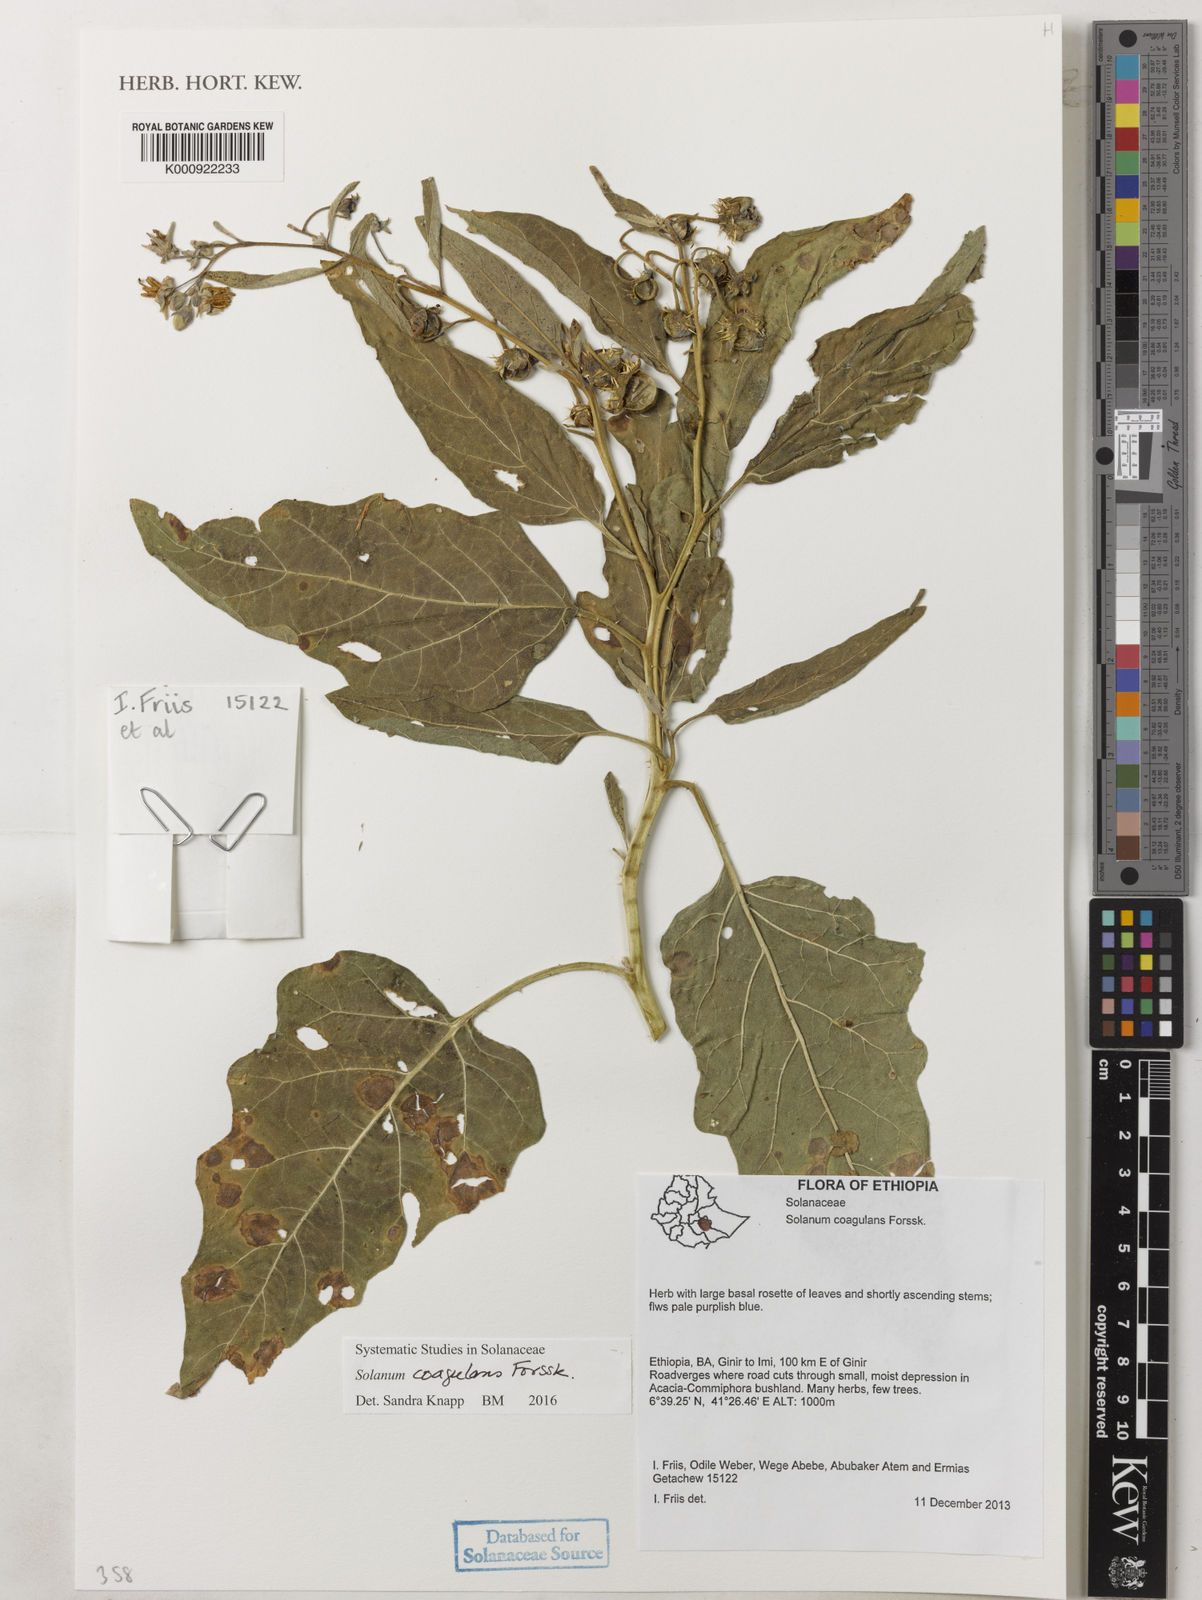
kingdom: Plantae
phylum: Tracheophyta
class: Magnoliopsida
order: Solanales
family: Solanaceae
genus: Solanum
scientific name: Solanum coagulans
